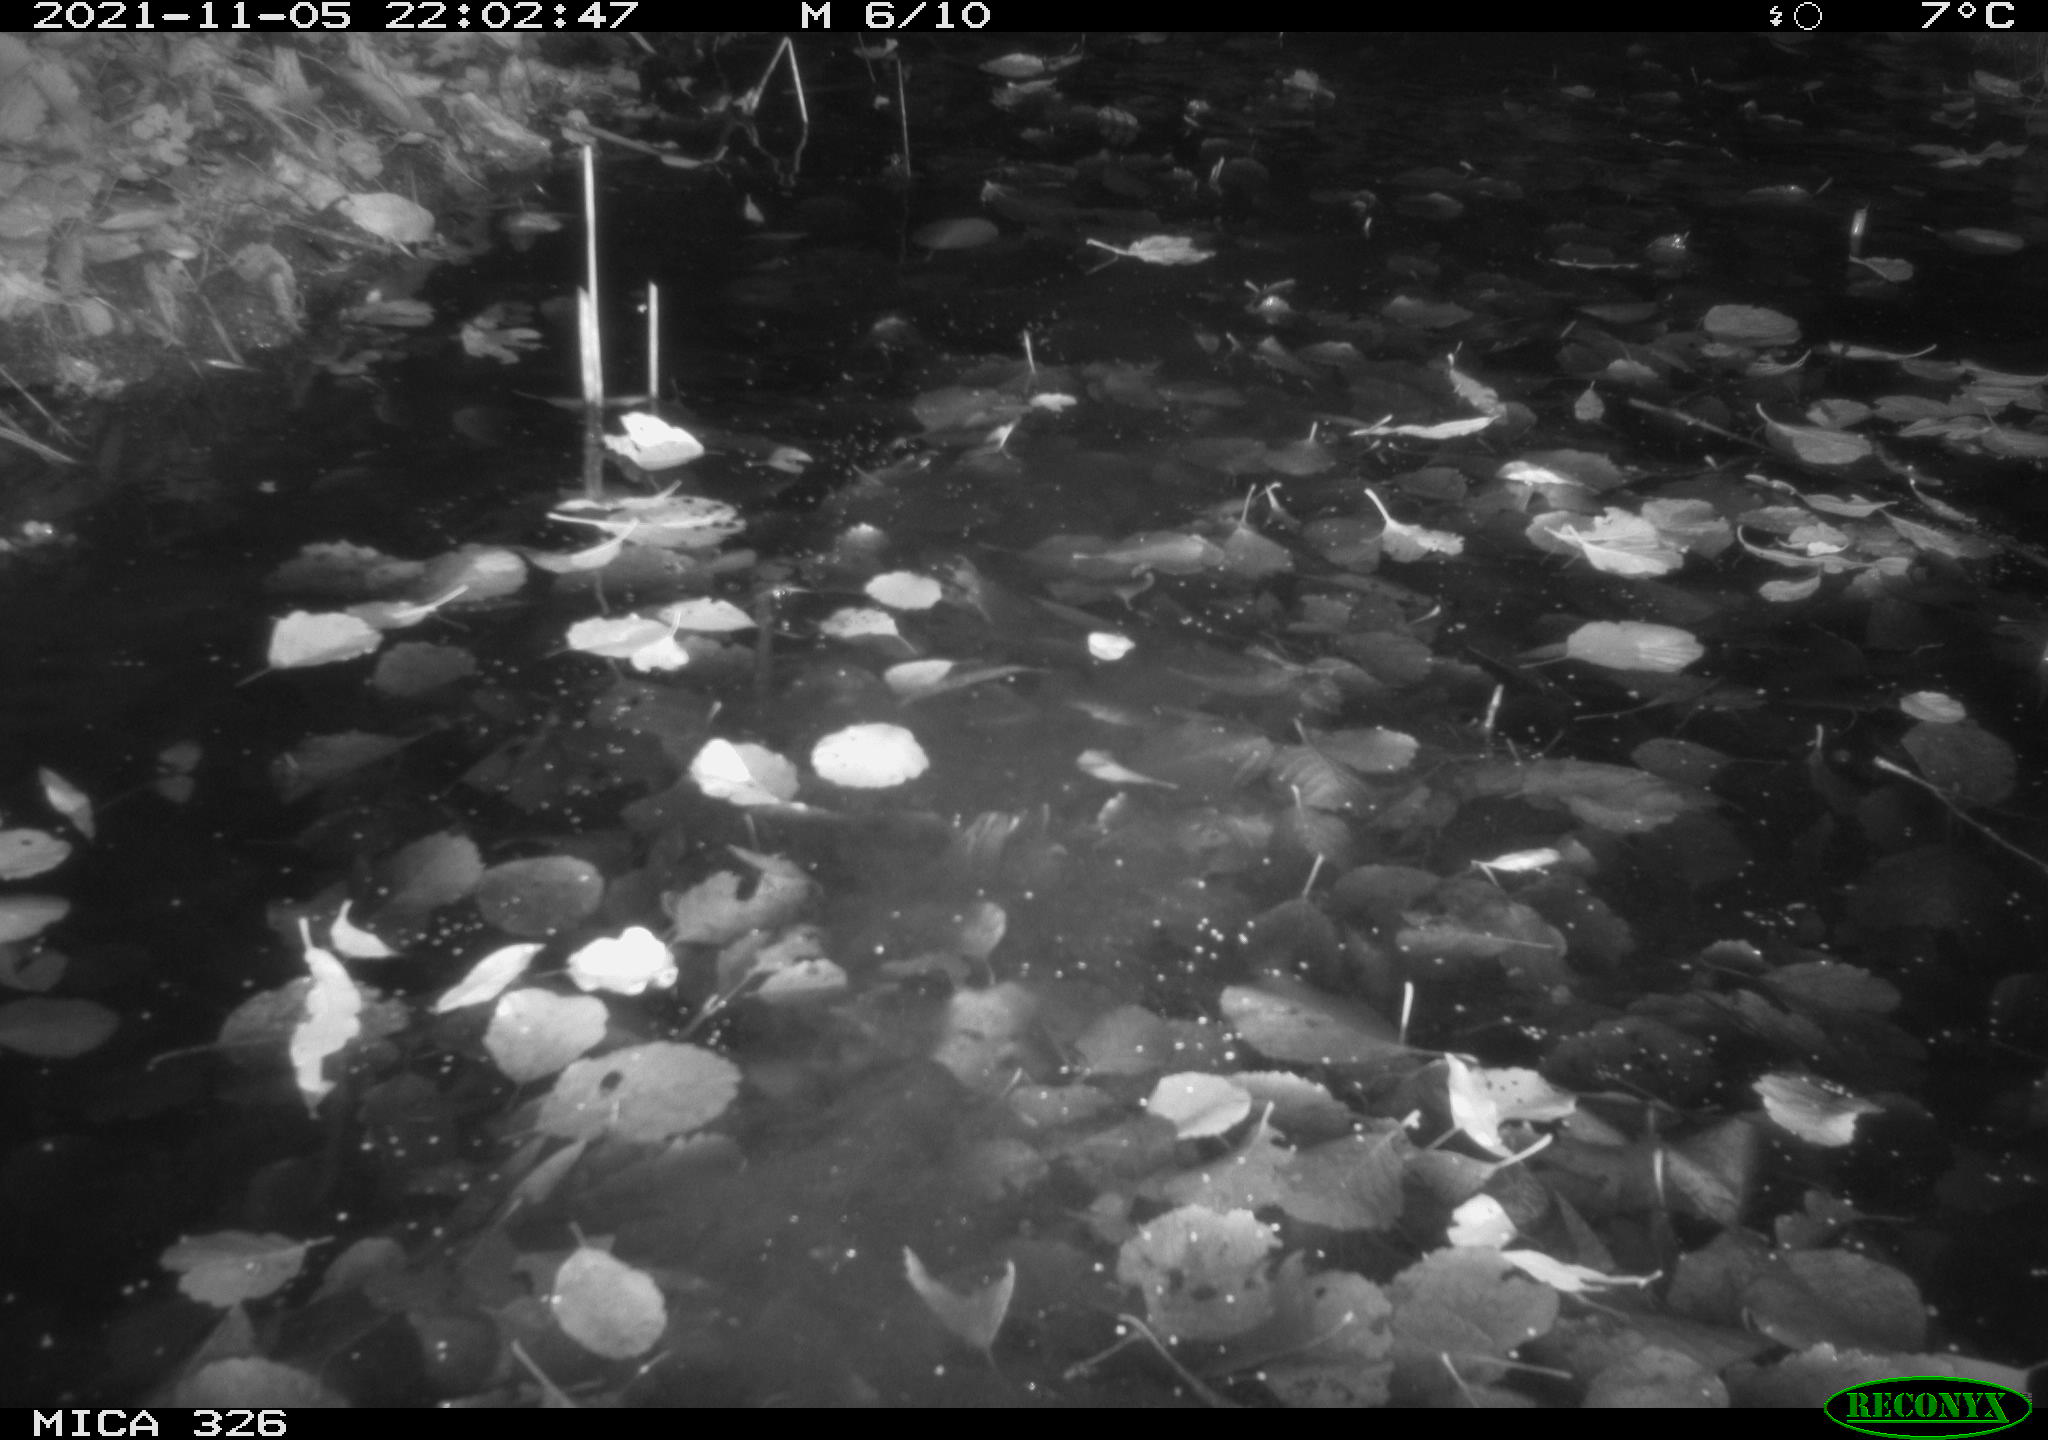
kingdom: Animalia
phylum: Chordata
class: Mammalia
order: Carnivora
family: Mustelidae
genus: Lutra
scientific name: Lutra lutra
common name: European otter
